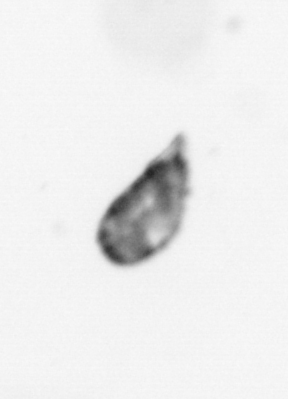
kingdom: Animalia
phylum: Arthropoda
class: Maxillopoda
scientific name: Maxillopoda
